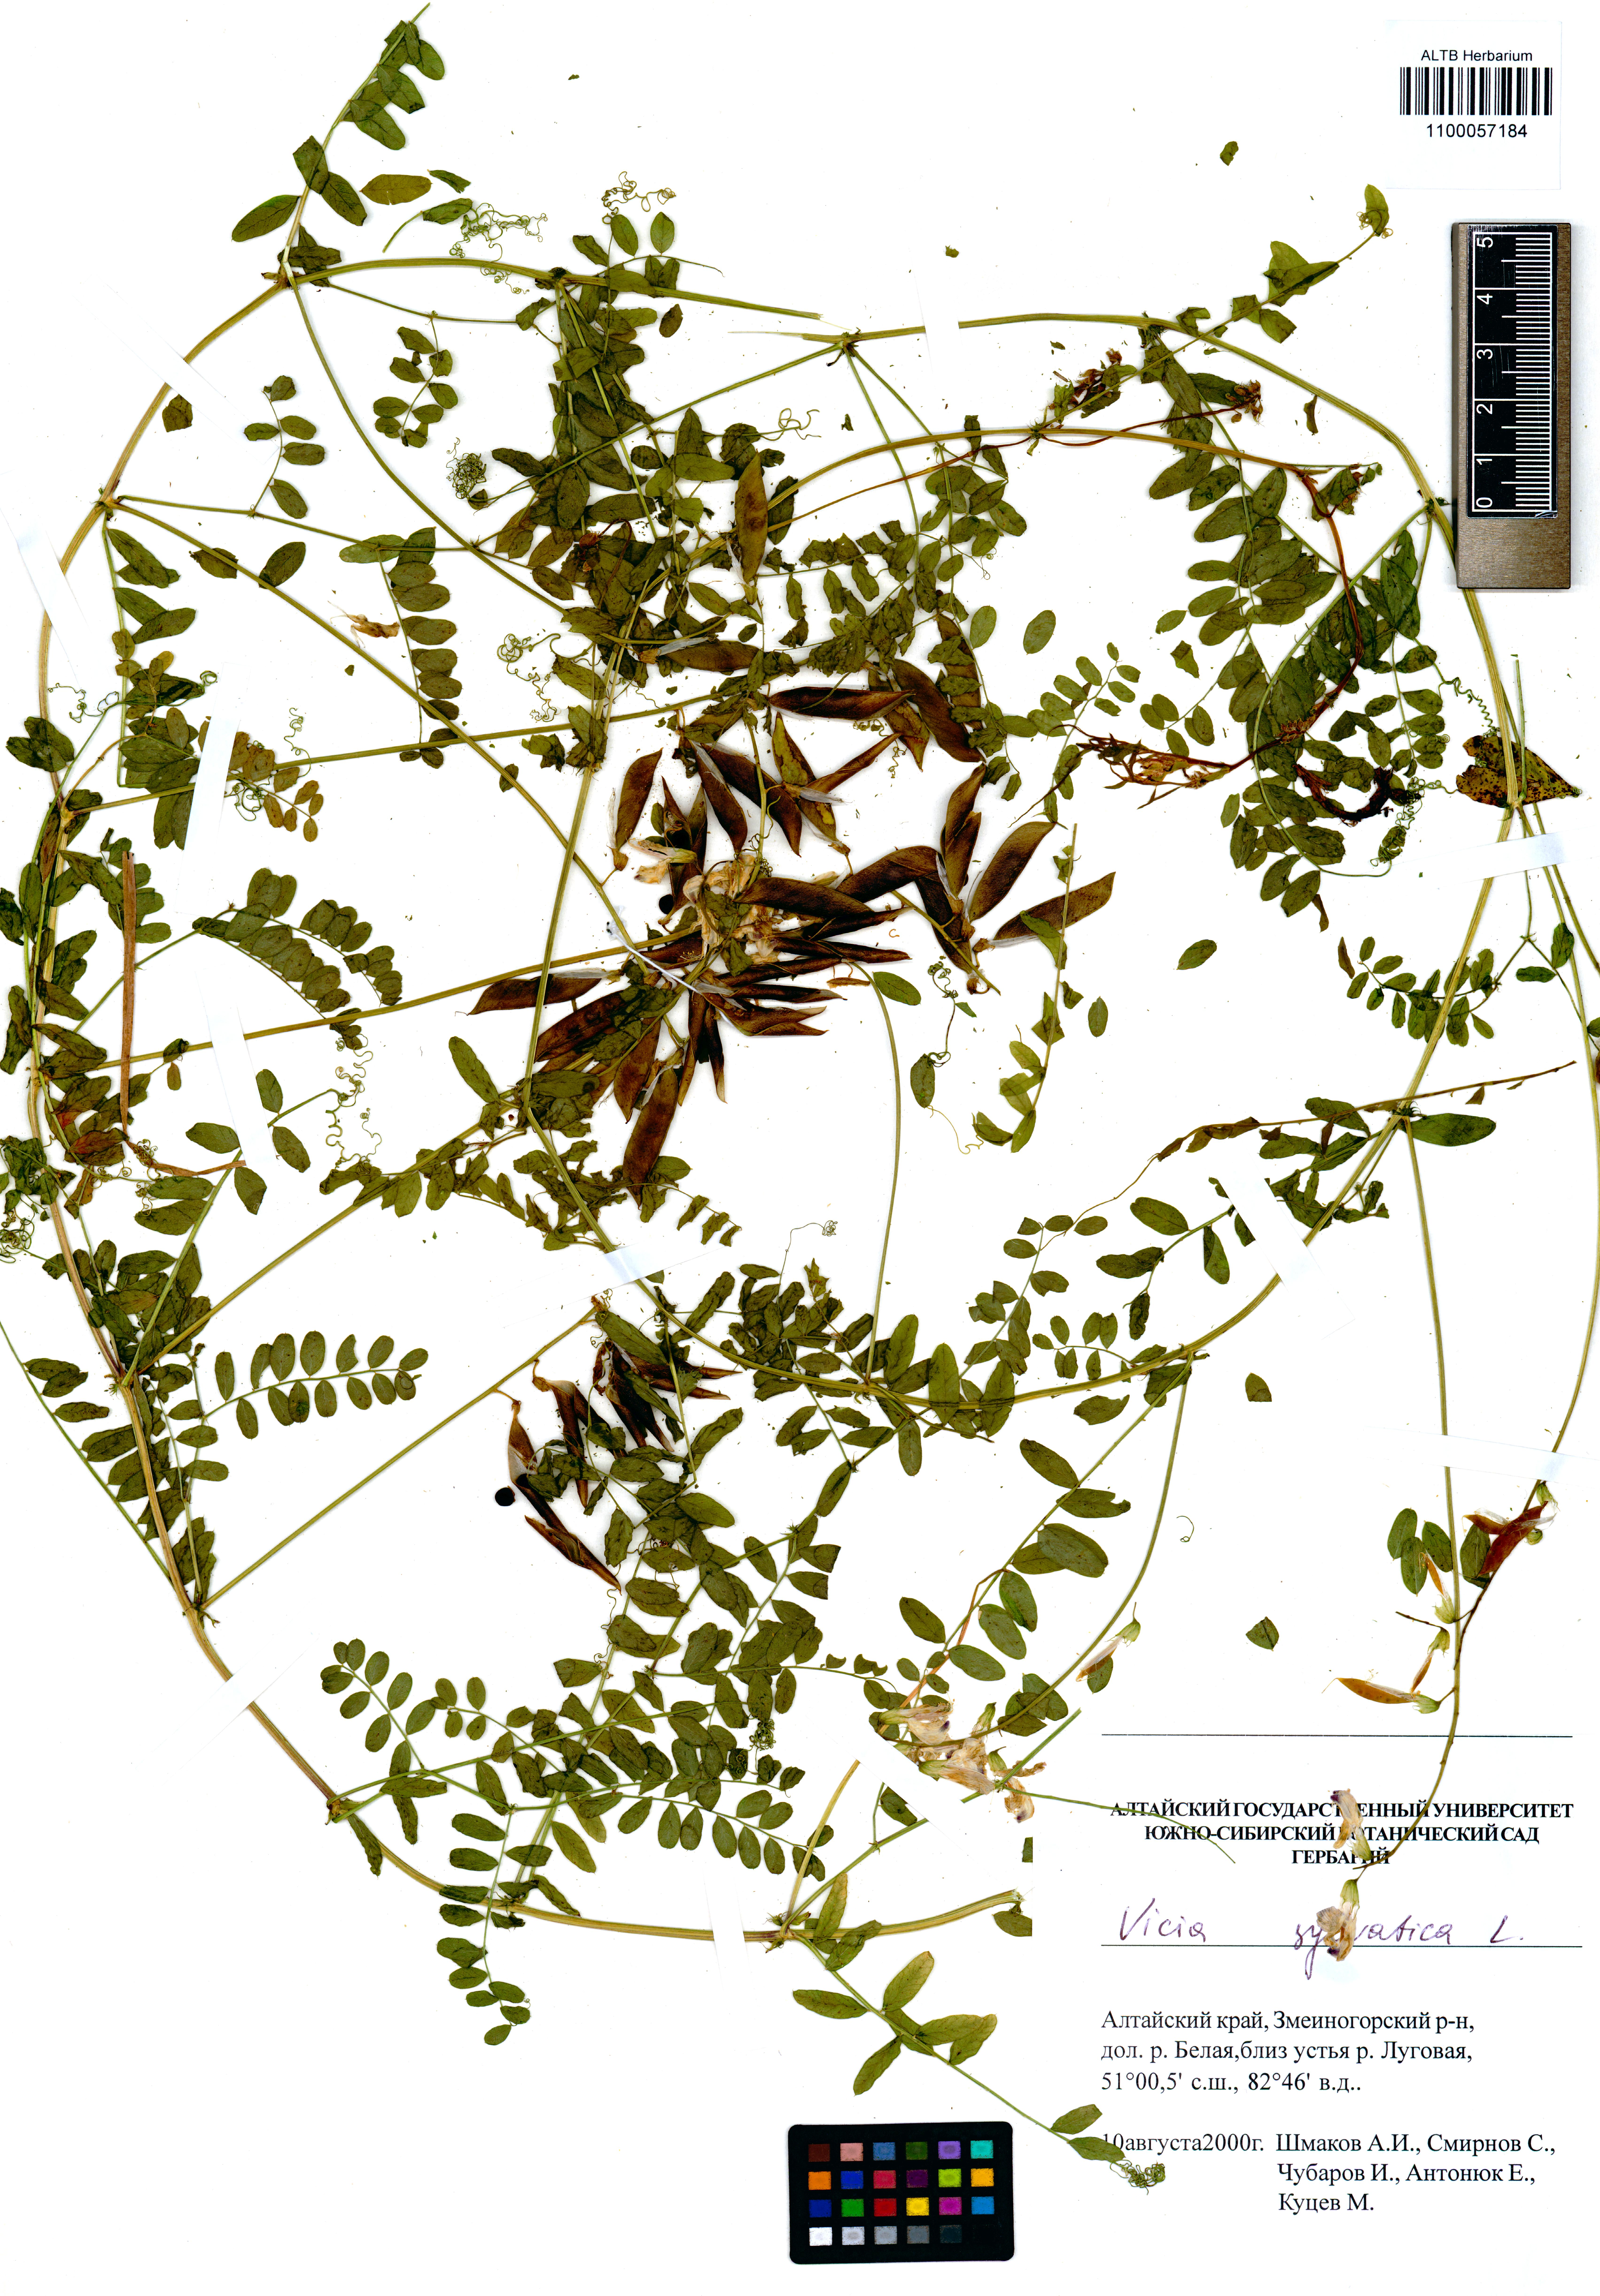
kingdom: Plantae
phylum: Tracheophyta
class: Magnoliopsida
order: Fabales
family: Fabaceae
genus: Vicia
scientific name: Vicia sylvatica
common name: Wood vetch
